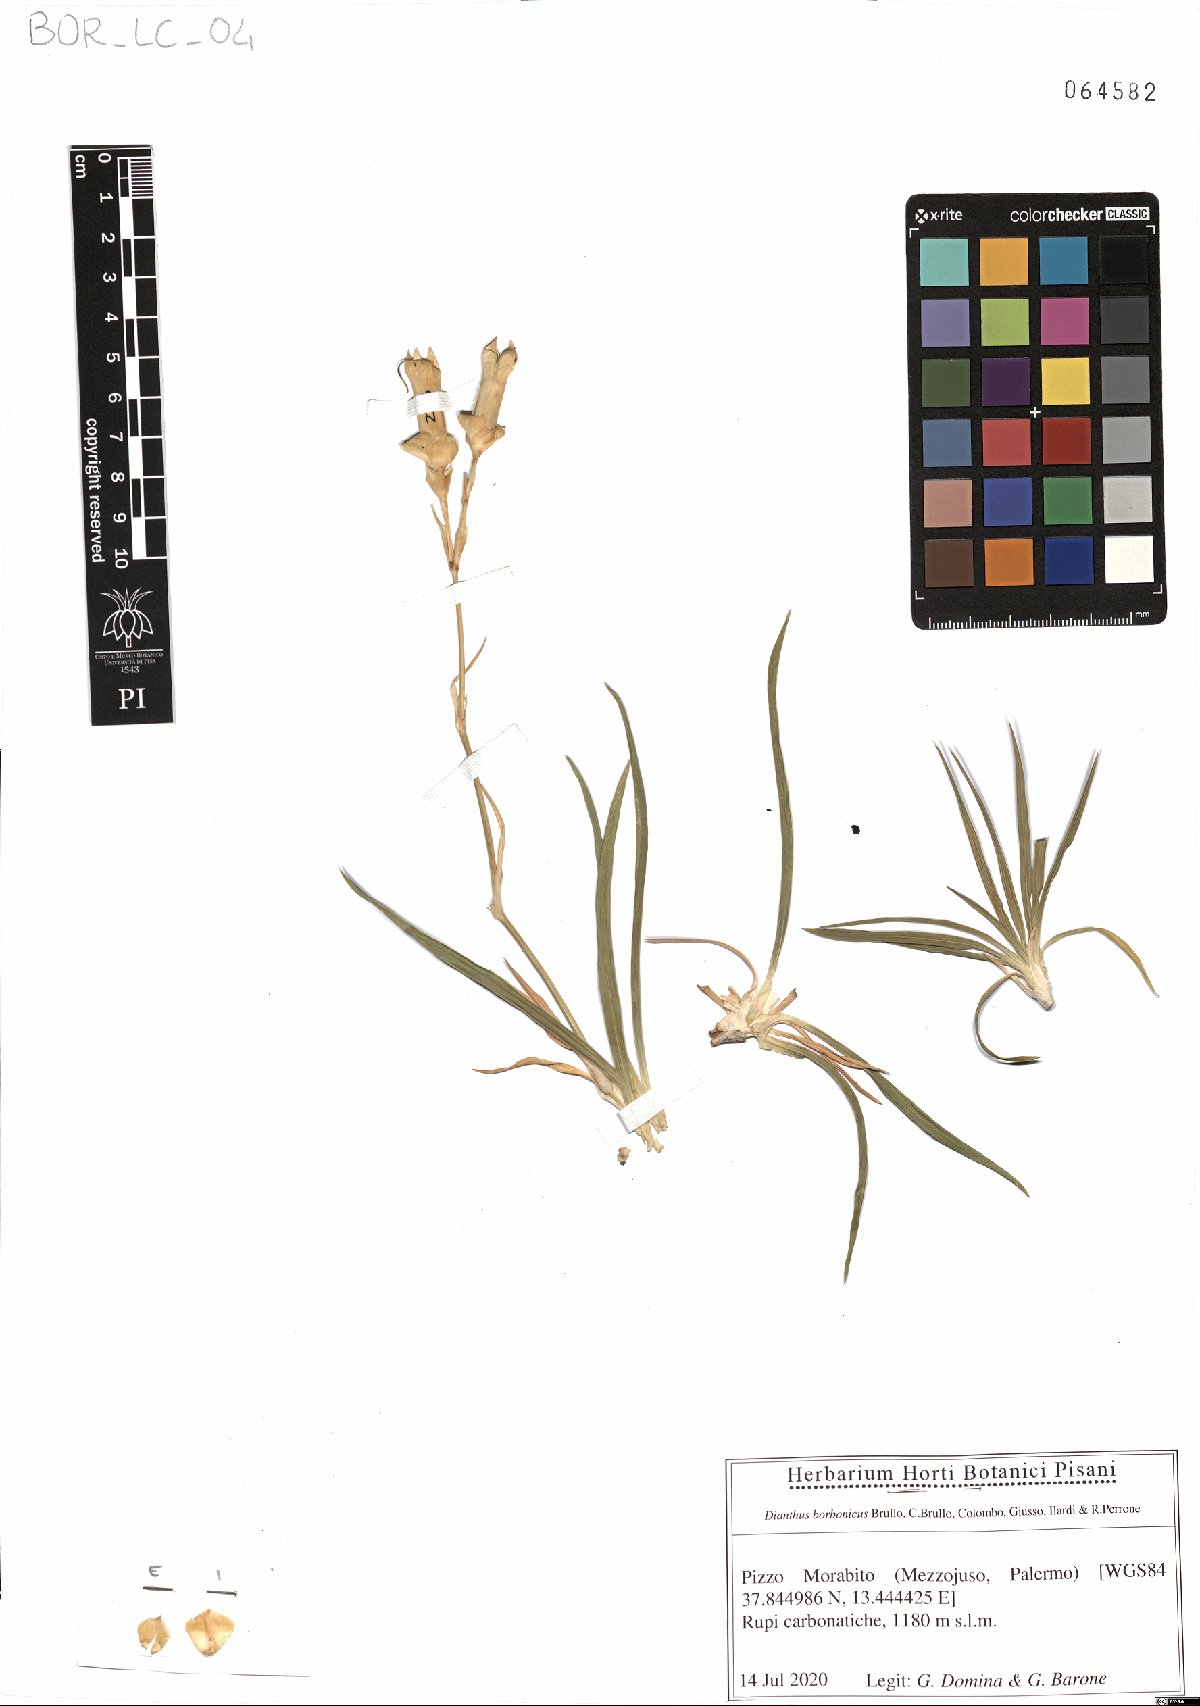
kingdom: Plantae
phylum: Tracheophyta
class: Magnoliopsida
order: Caryophyllales
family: Caryophyllaceae
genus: Dianthus
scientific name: Dianthus borbonicus
